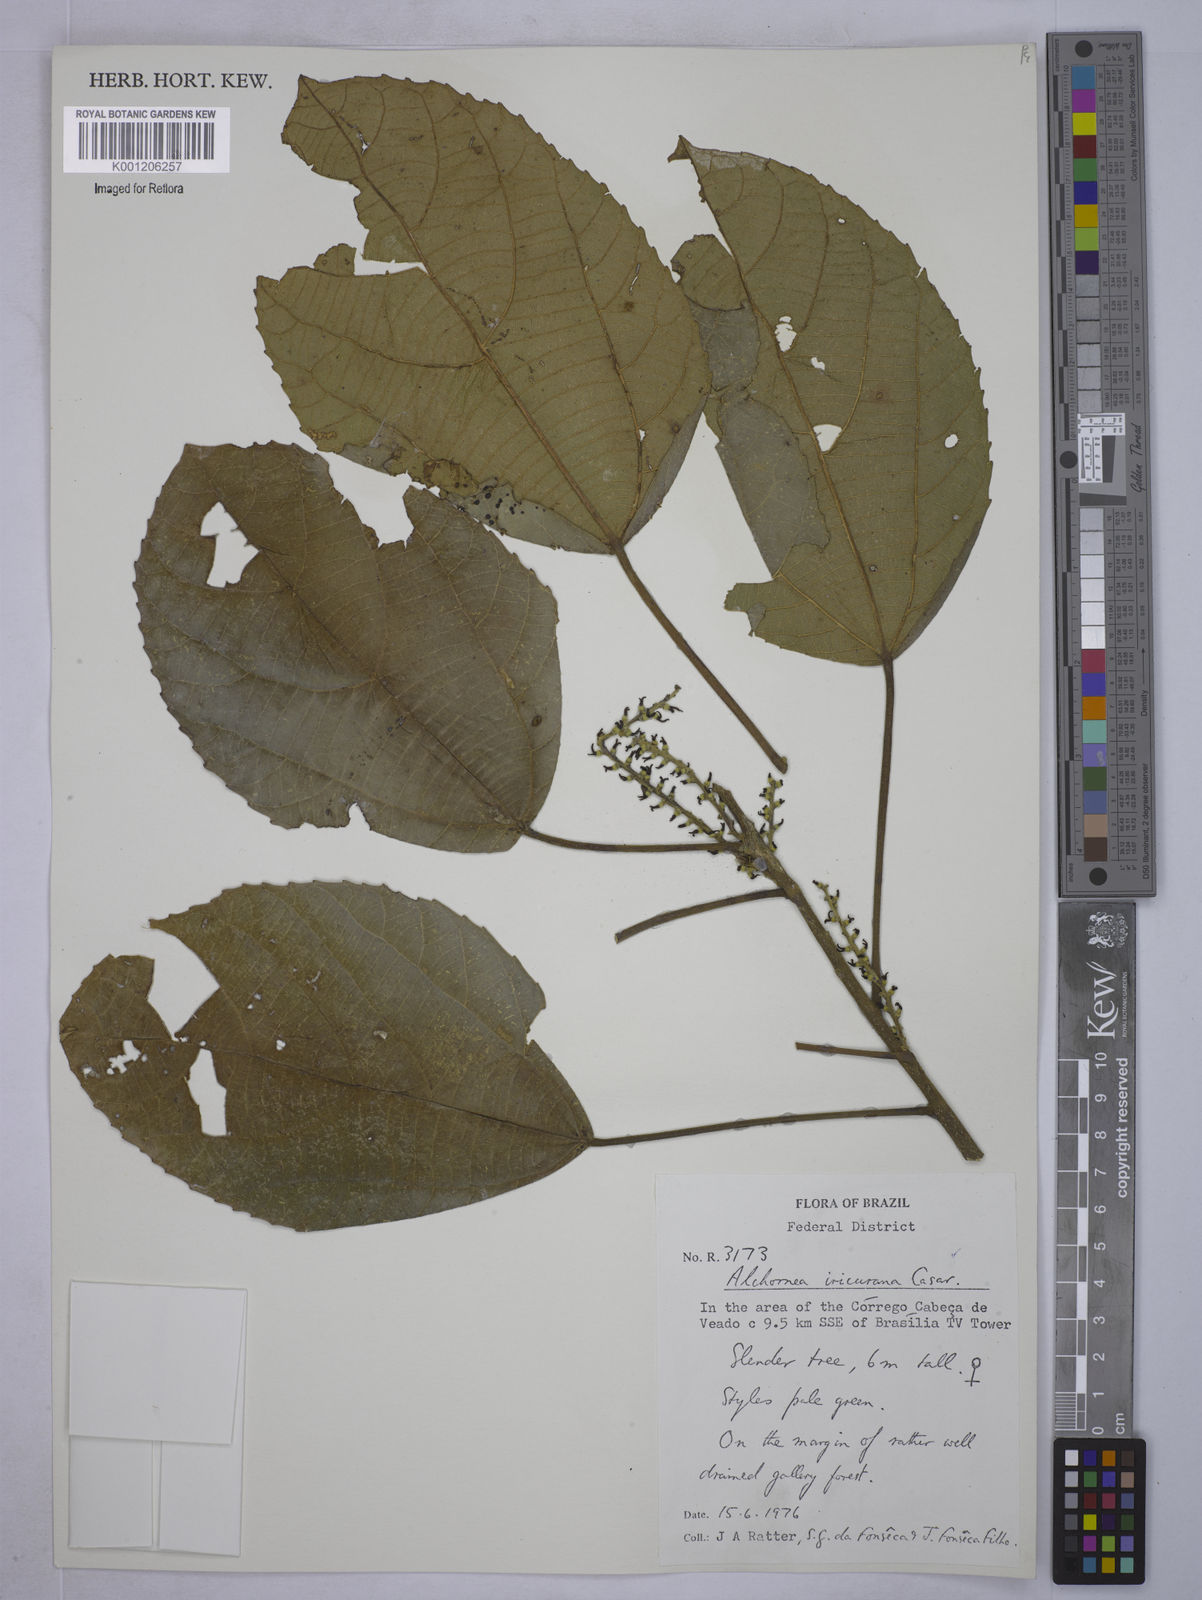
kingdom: Plantae
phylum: Tracheophyta
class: Magnoliopsida
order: Malpighiales
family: Euphorbiaceae
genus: Alchornea
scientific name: Alchornea glandulosa
